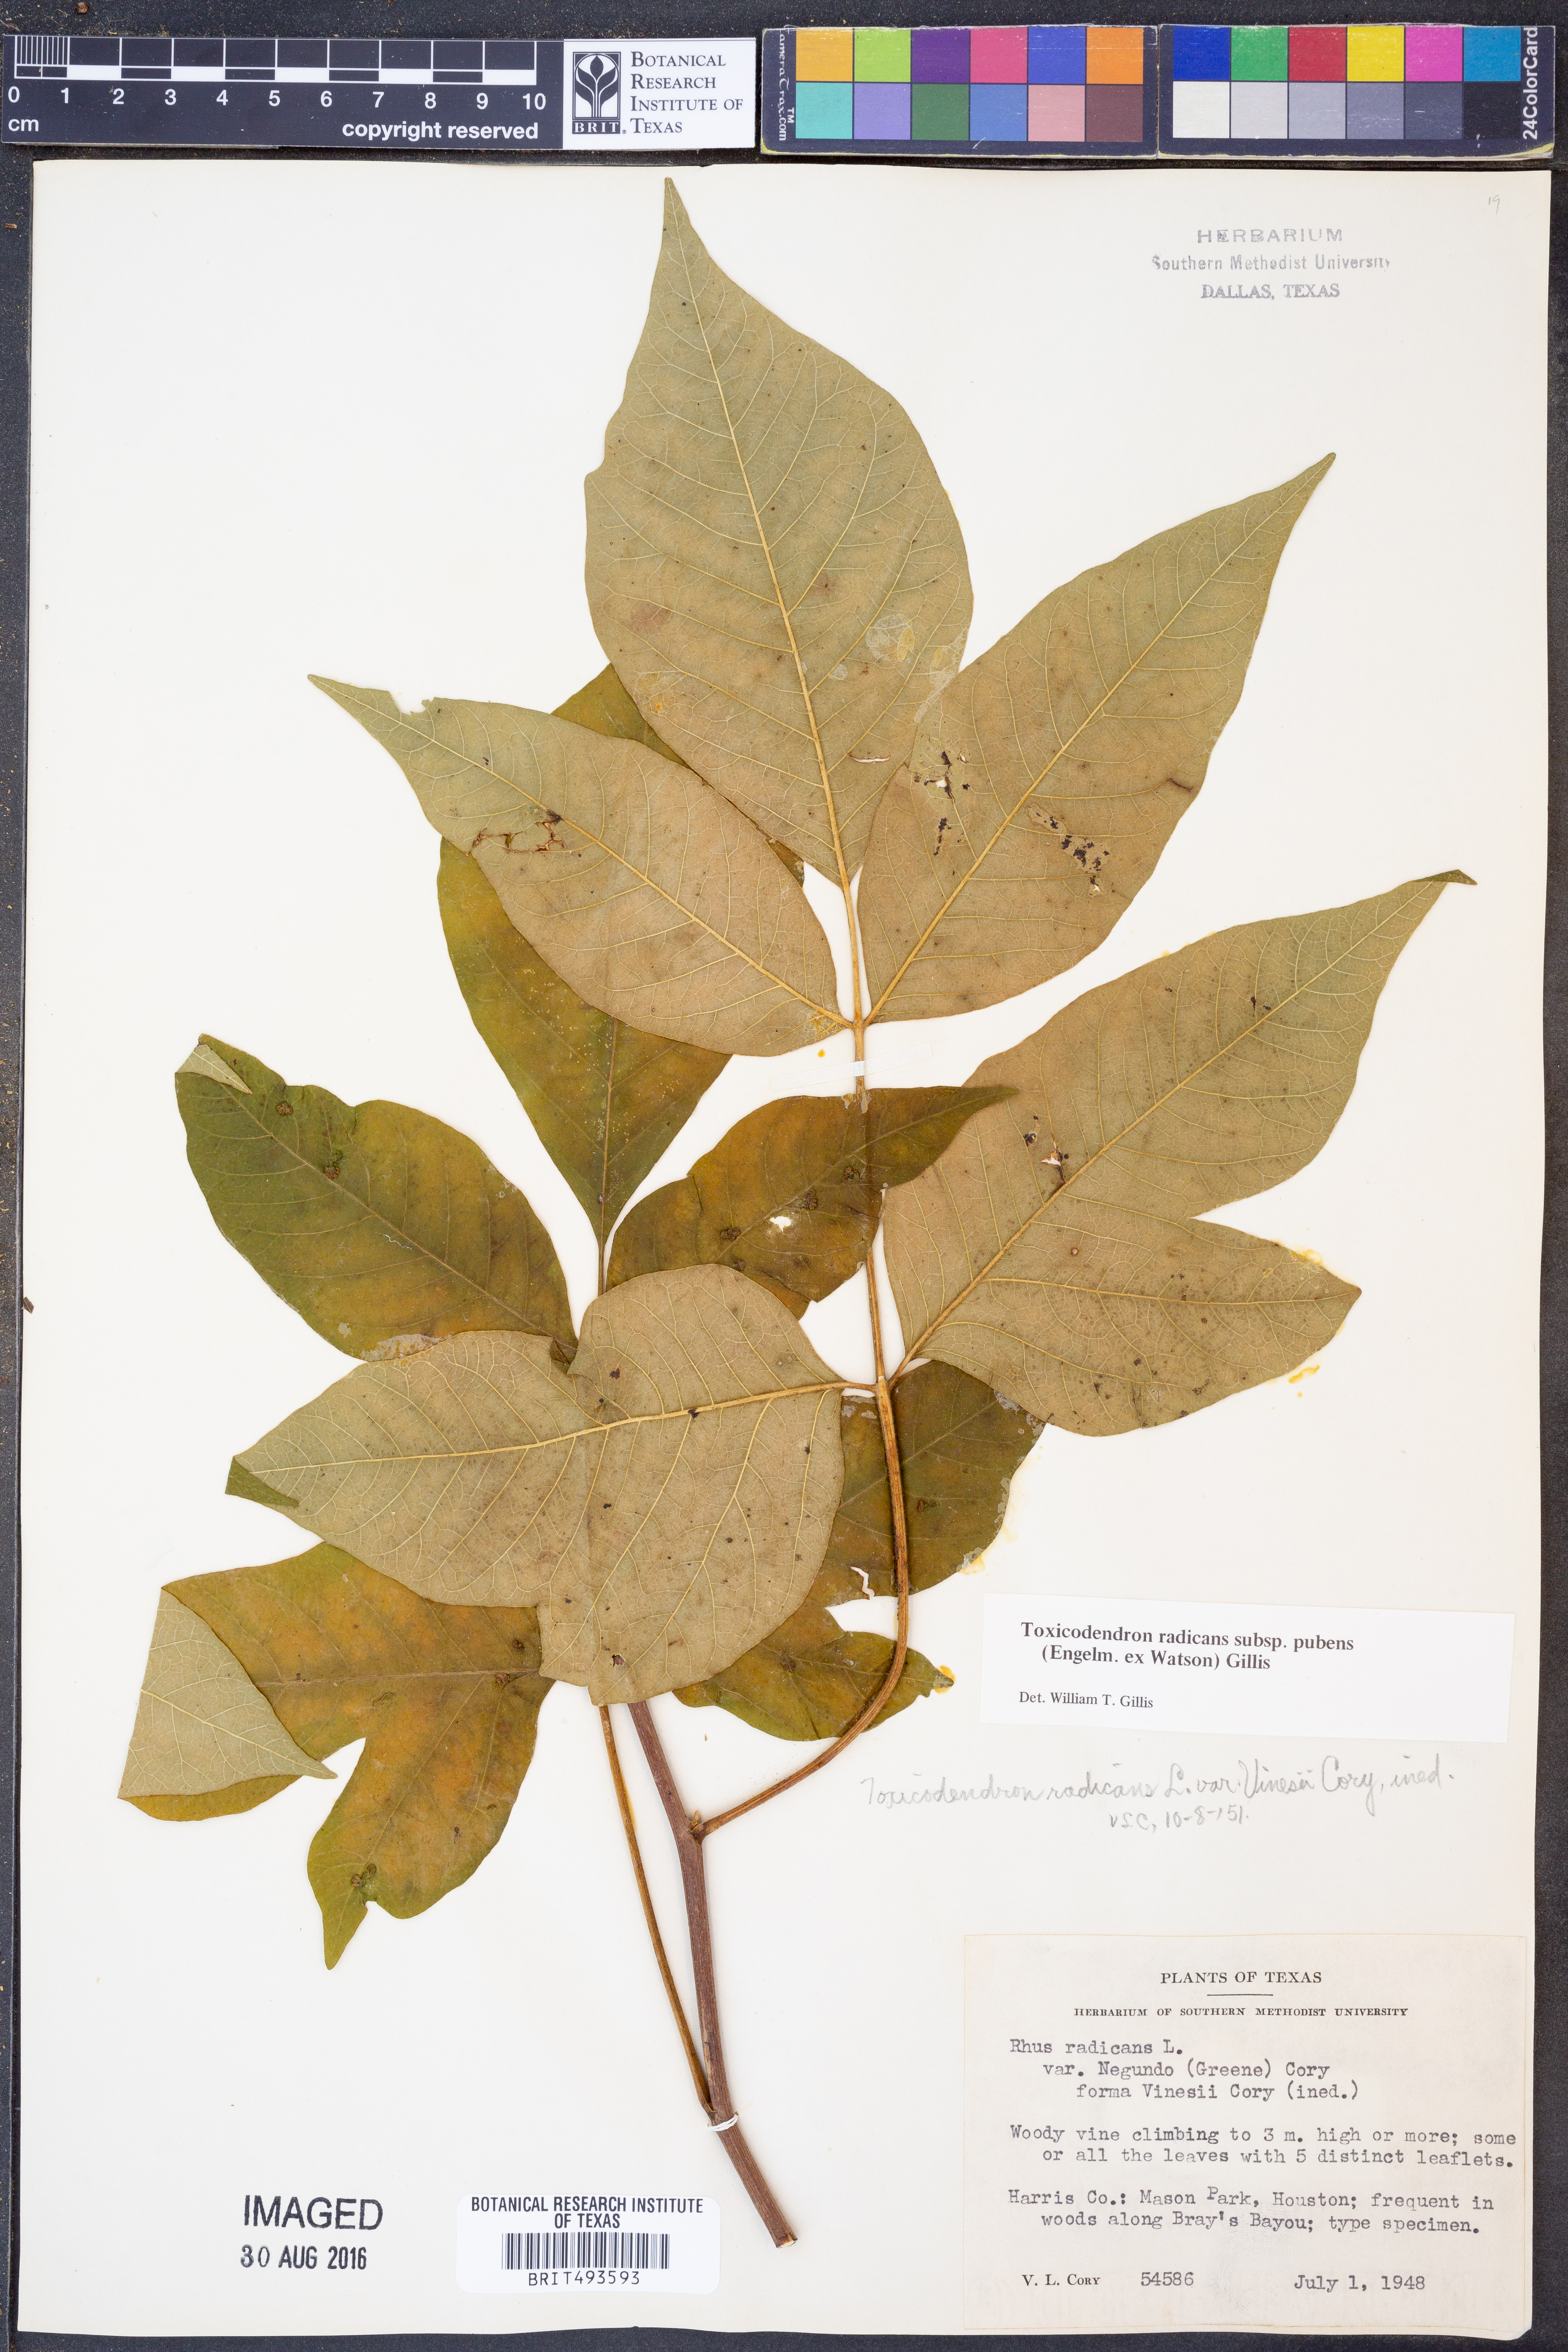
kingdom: Plantae
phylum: Tracheophyta
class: Magnoliopsida
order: Sapindales
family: Anacardiaceae
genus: Toxicodendron
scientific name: Toxicodendron radicans
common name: Poison ivy
